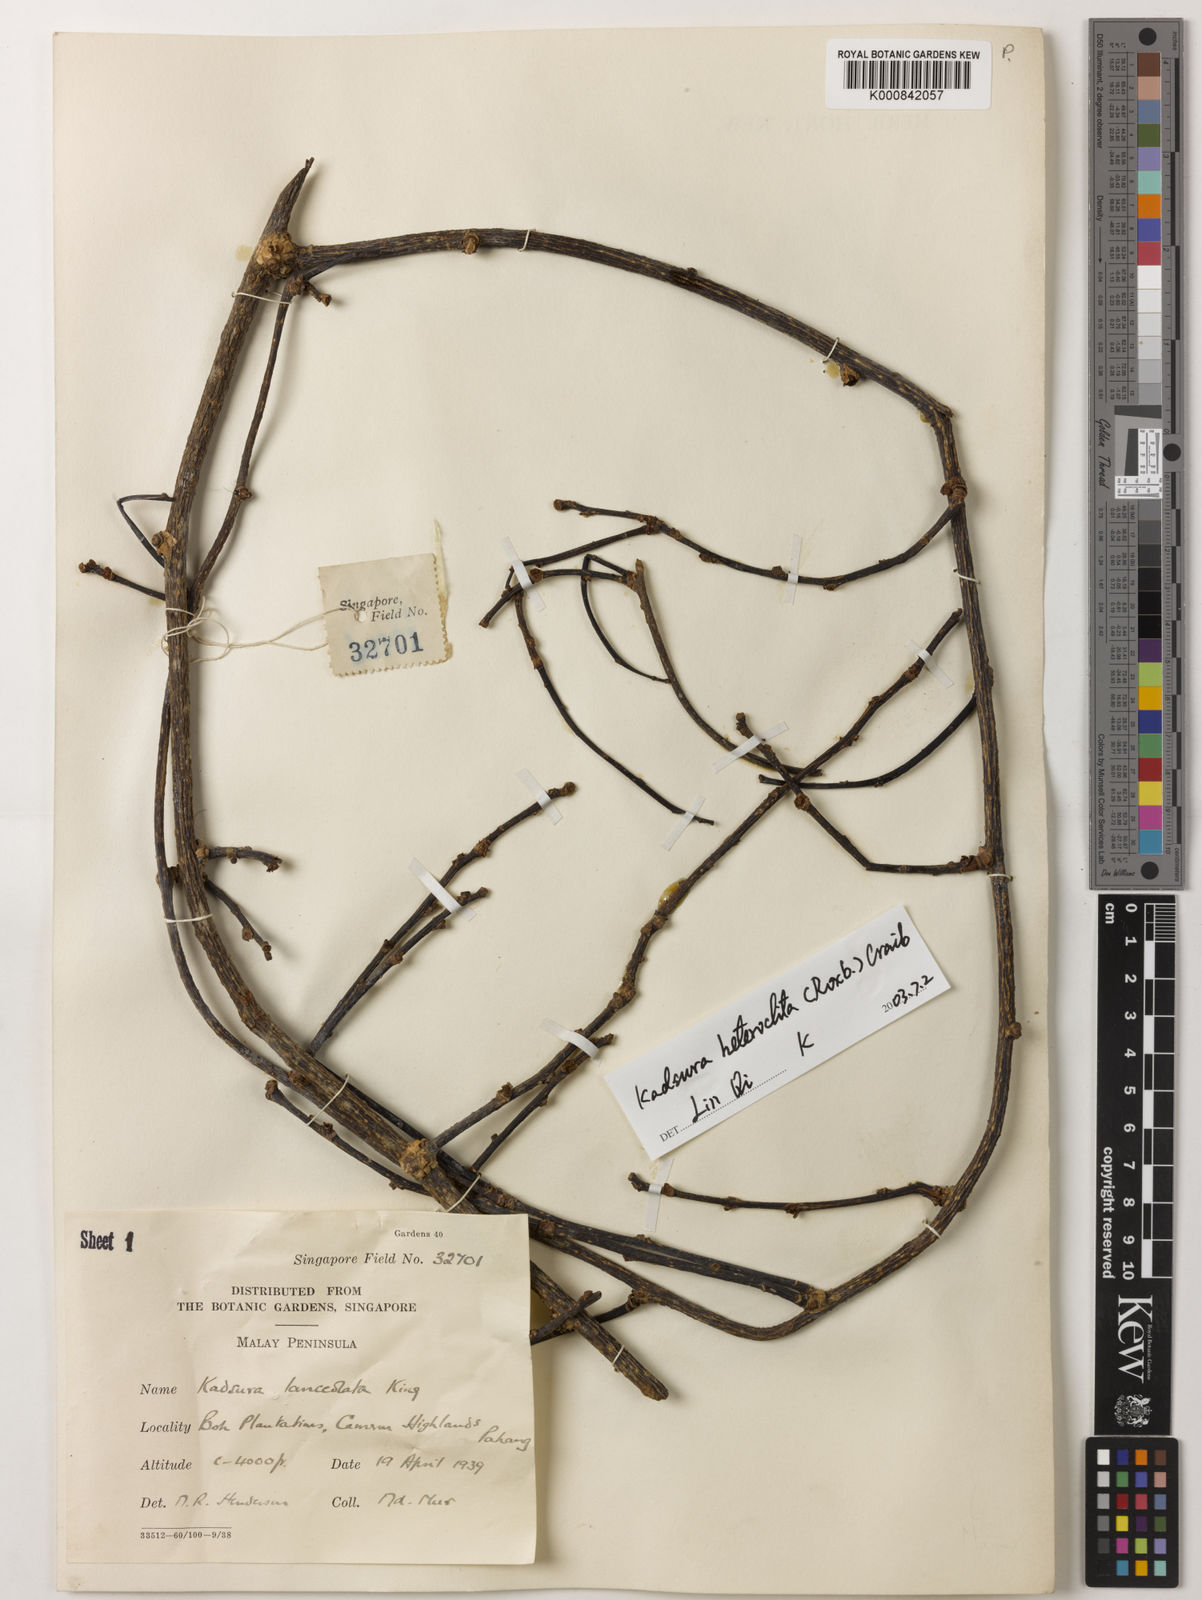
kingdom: Plantae
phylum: Tracheophyta
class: Magnoliopsida
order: Austrobaileyales
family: Schisandraceae
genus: Kadsura
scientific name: Kadsura heteroclita
